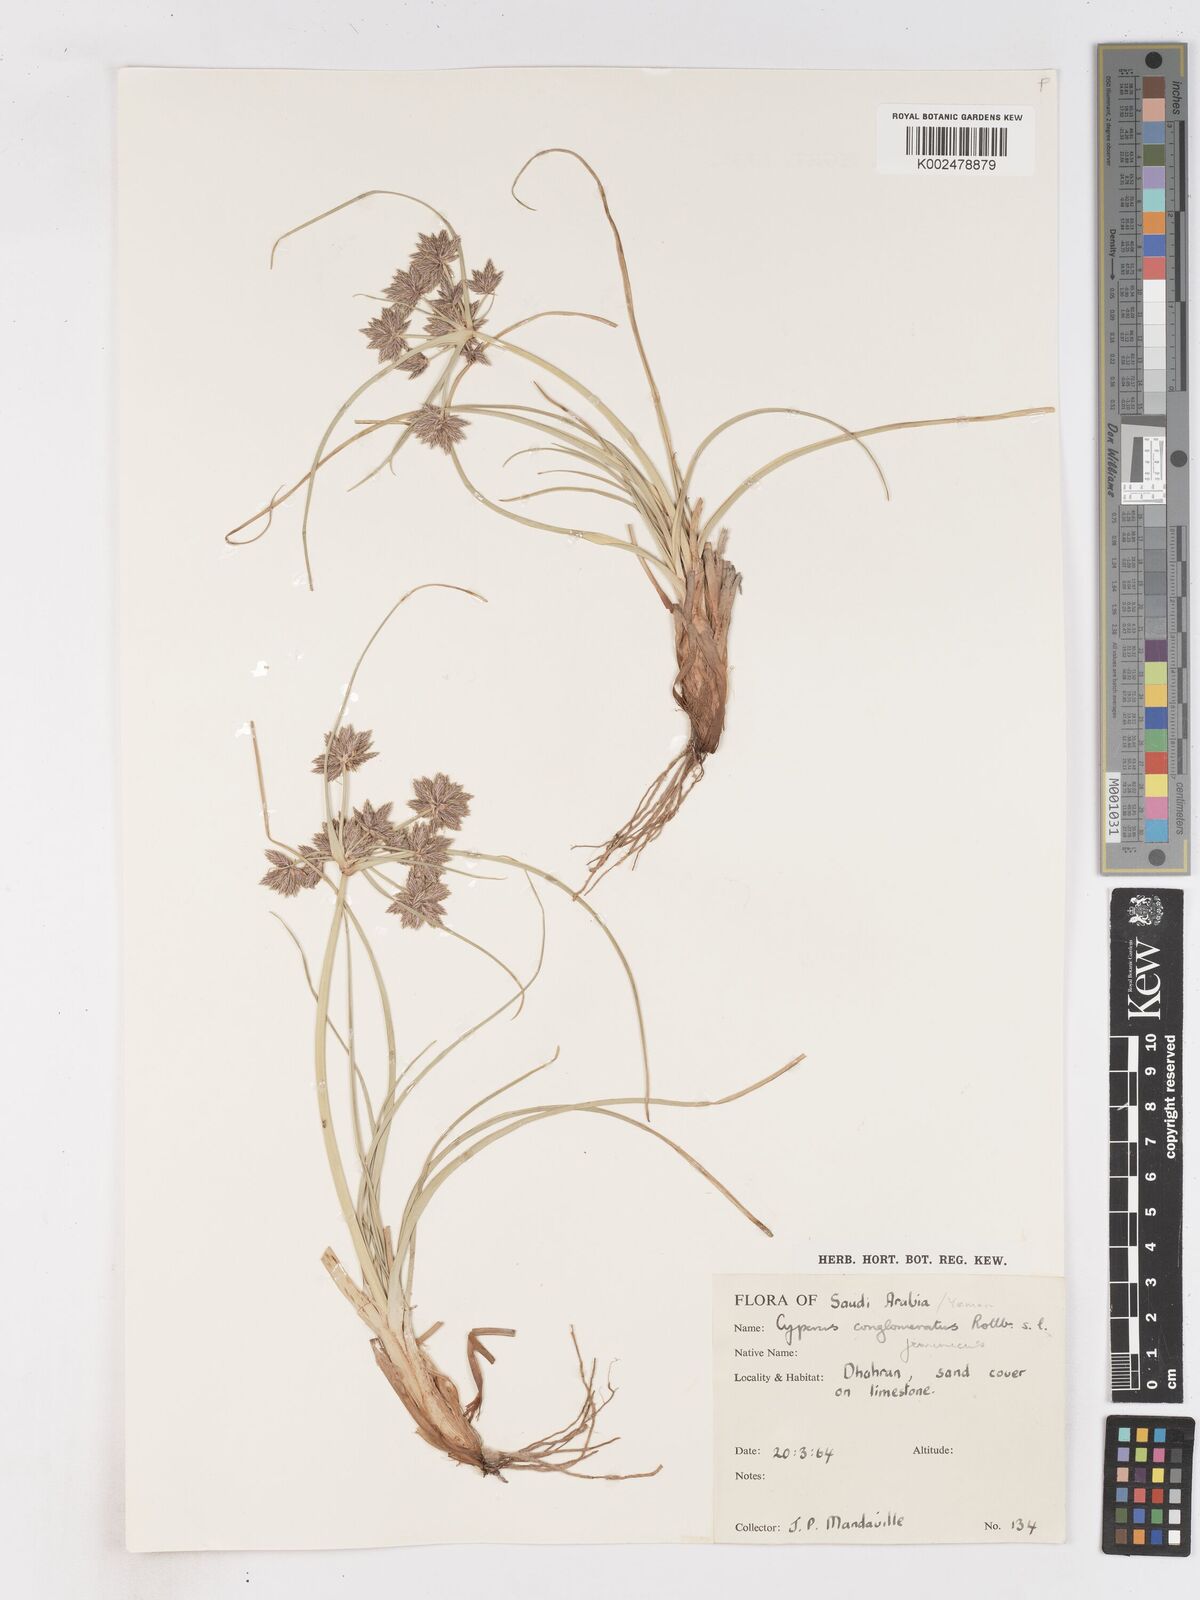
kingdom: Plantae
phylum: Tracheophyta
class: Liliopsida
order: Poales
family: Cyperaceae
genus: Cyperus
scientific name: Cyperus jeminicus
